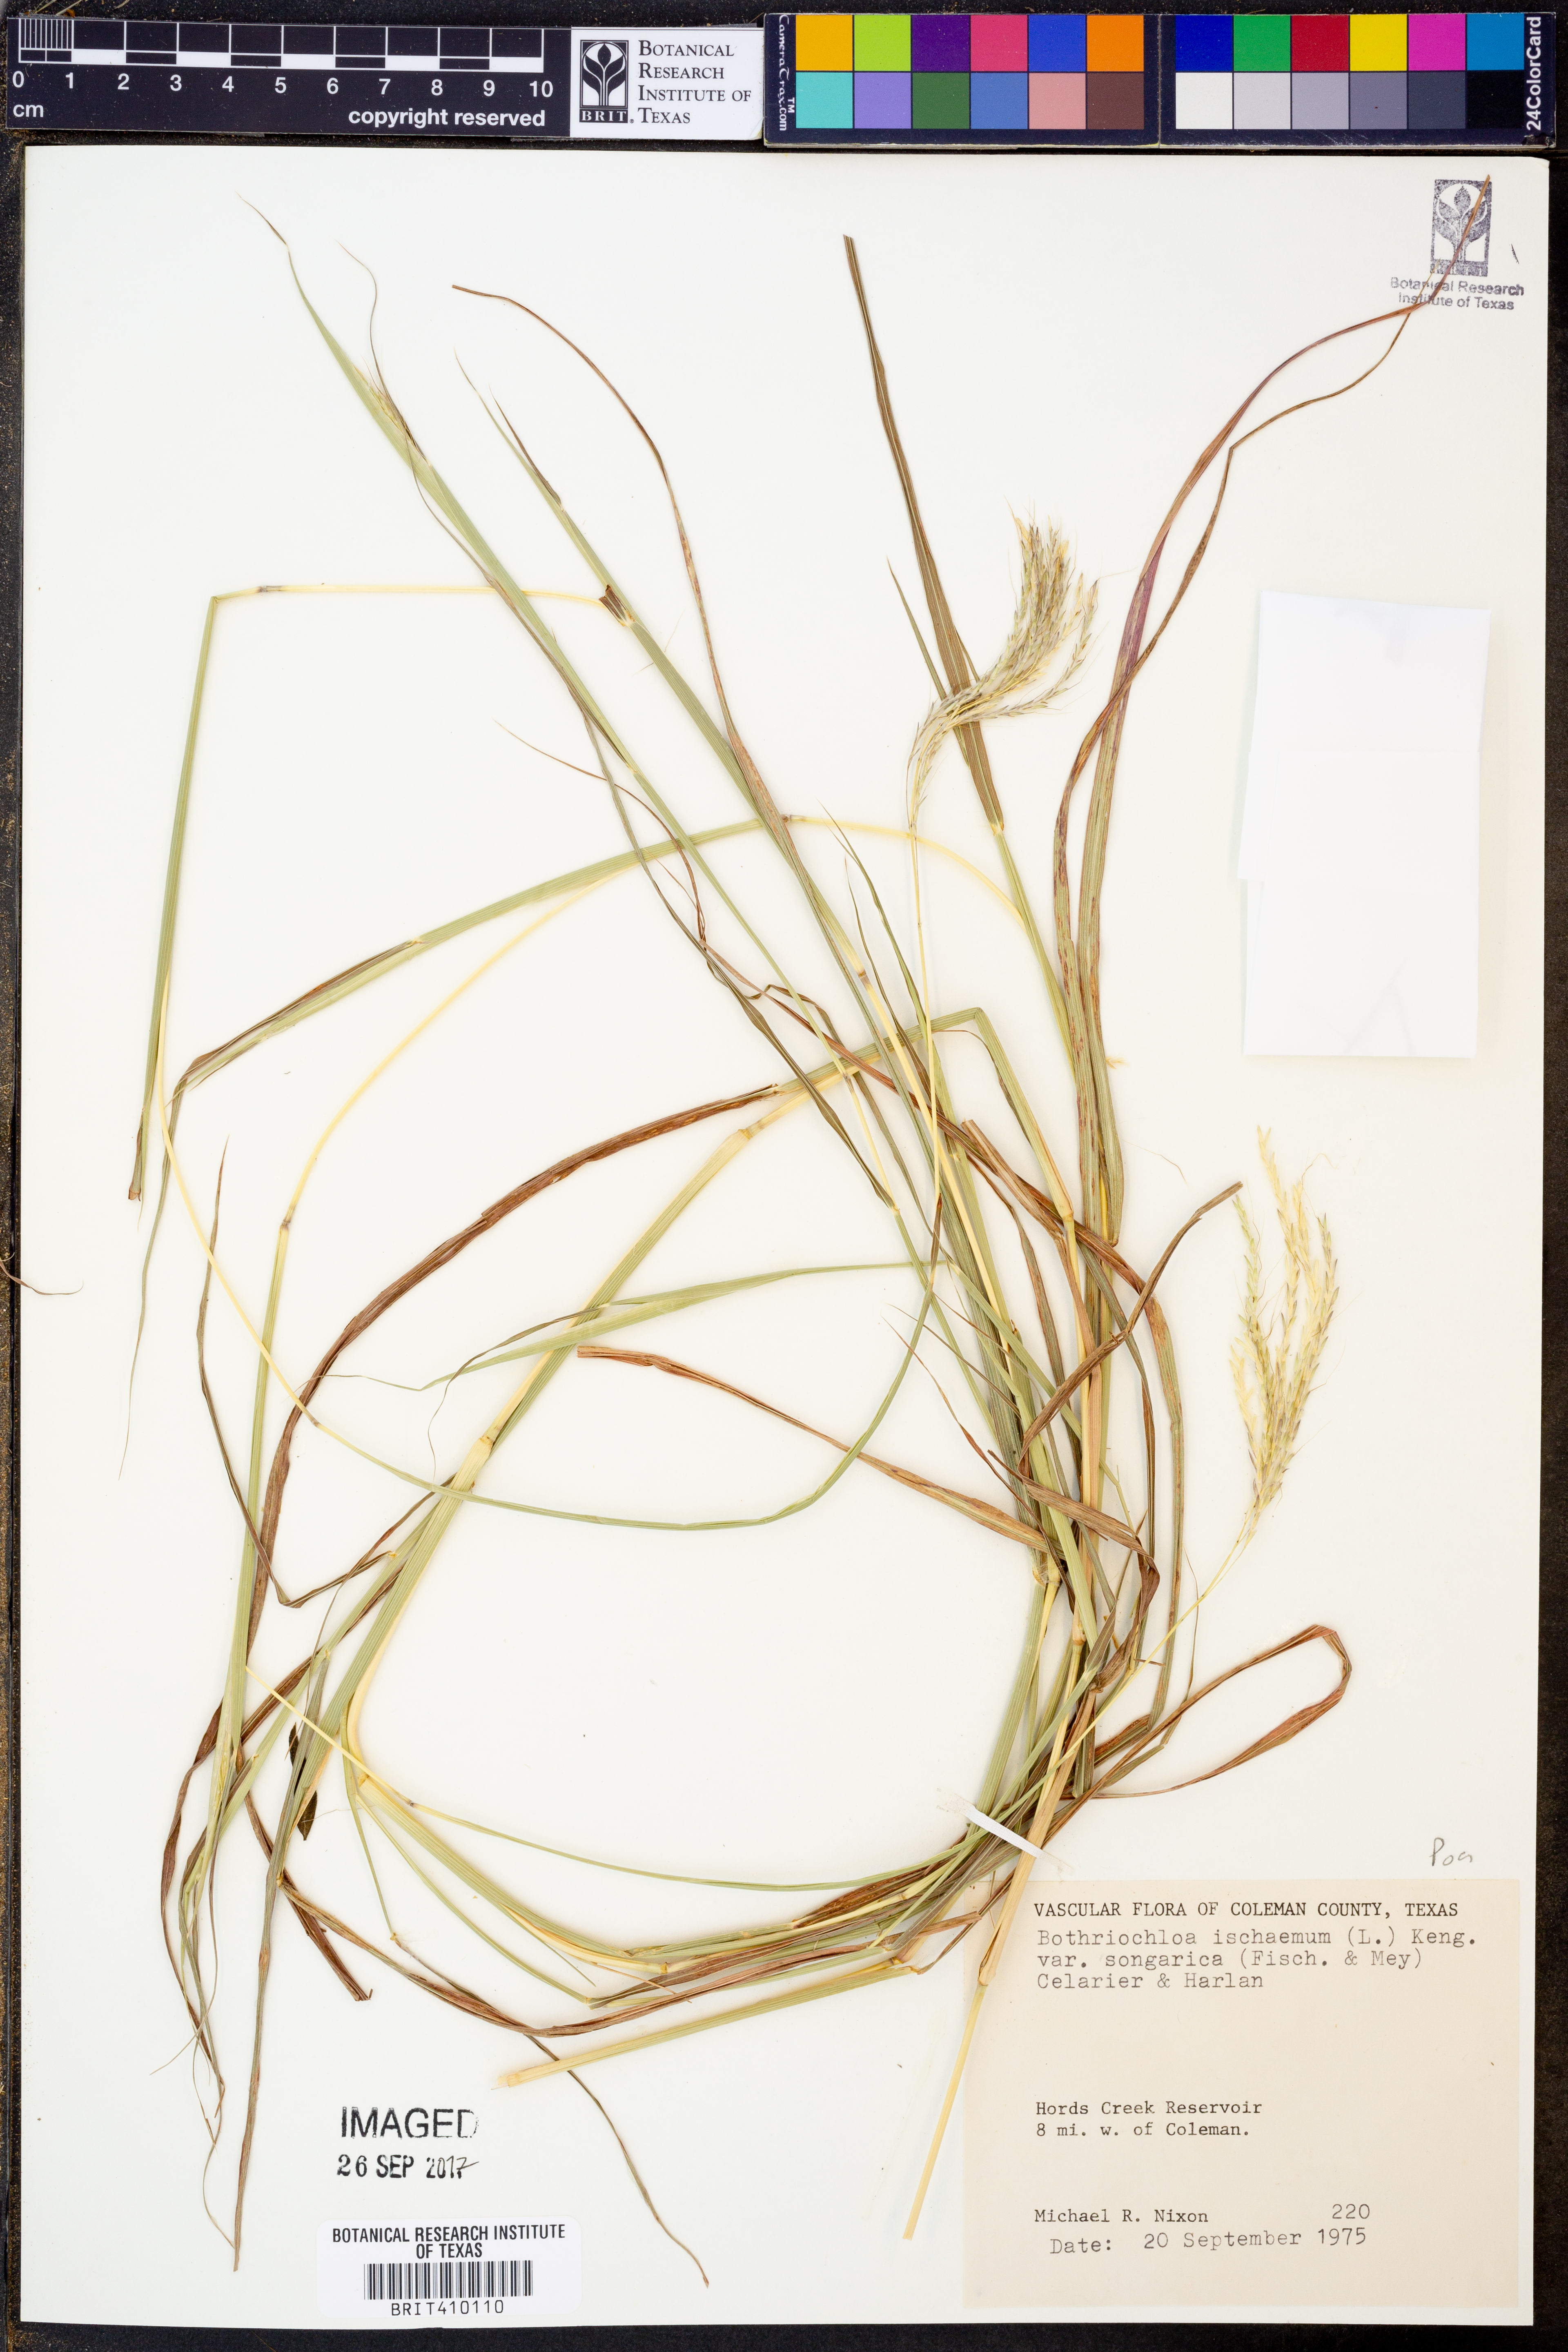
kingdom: Plantae
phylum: Tracheophyta
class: Liliopsida
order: Poales
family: Poaceae
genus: Bothriochloa
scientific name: Bothriochloa ischaemum
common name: Yellow bluestem
